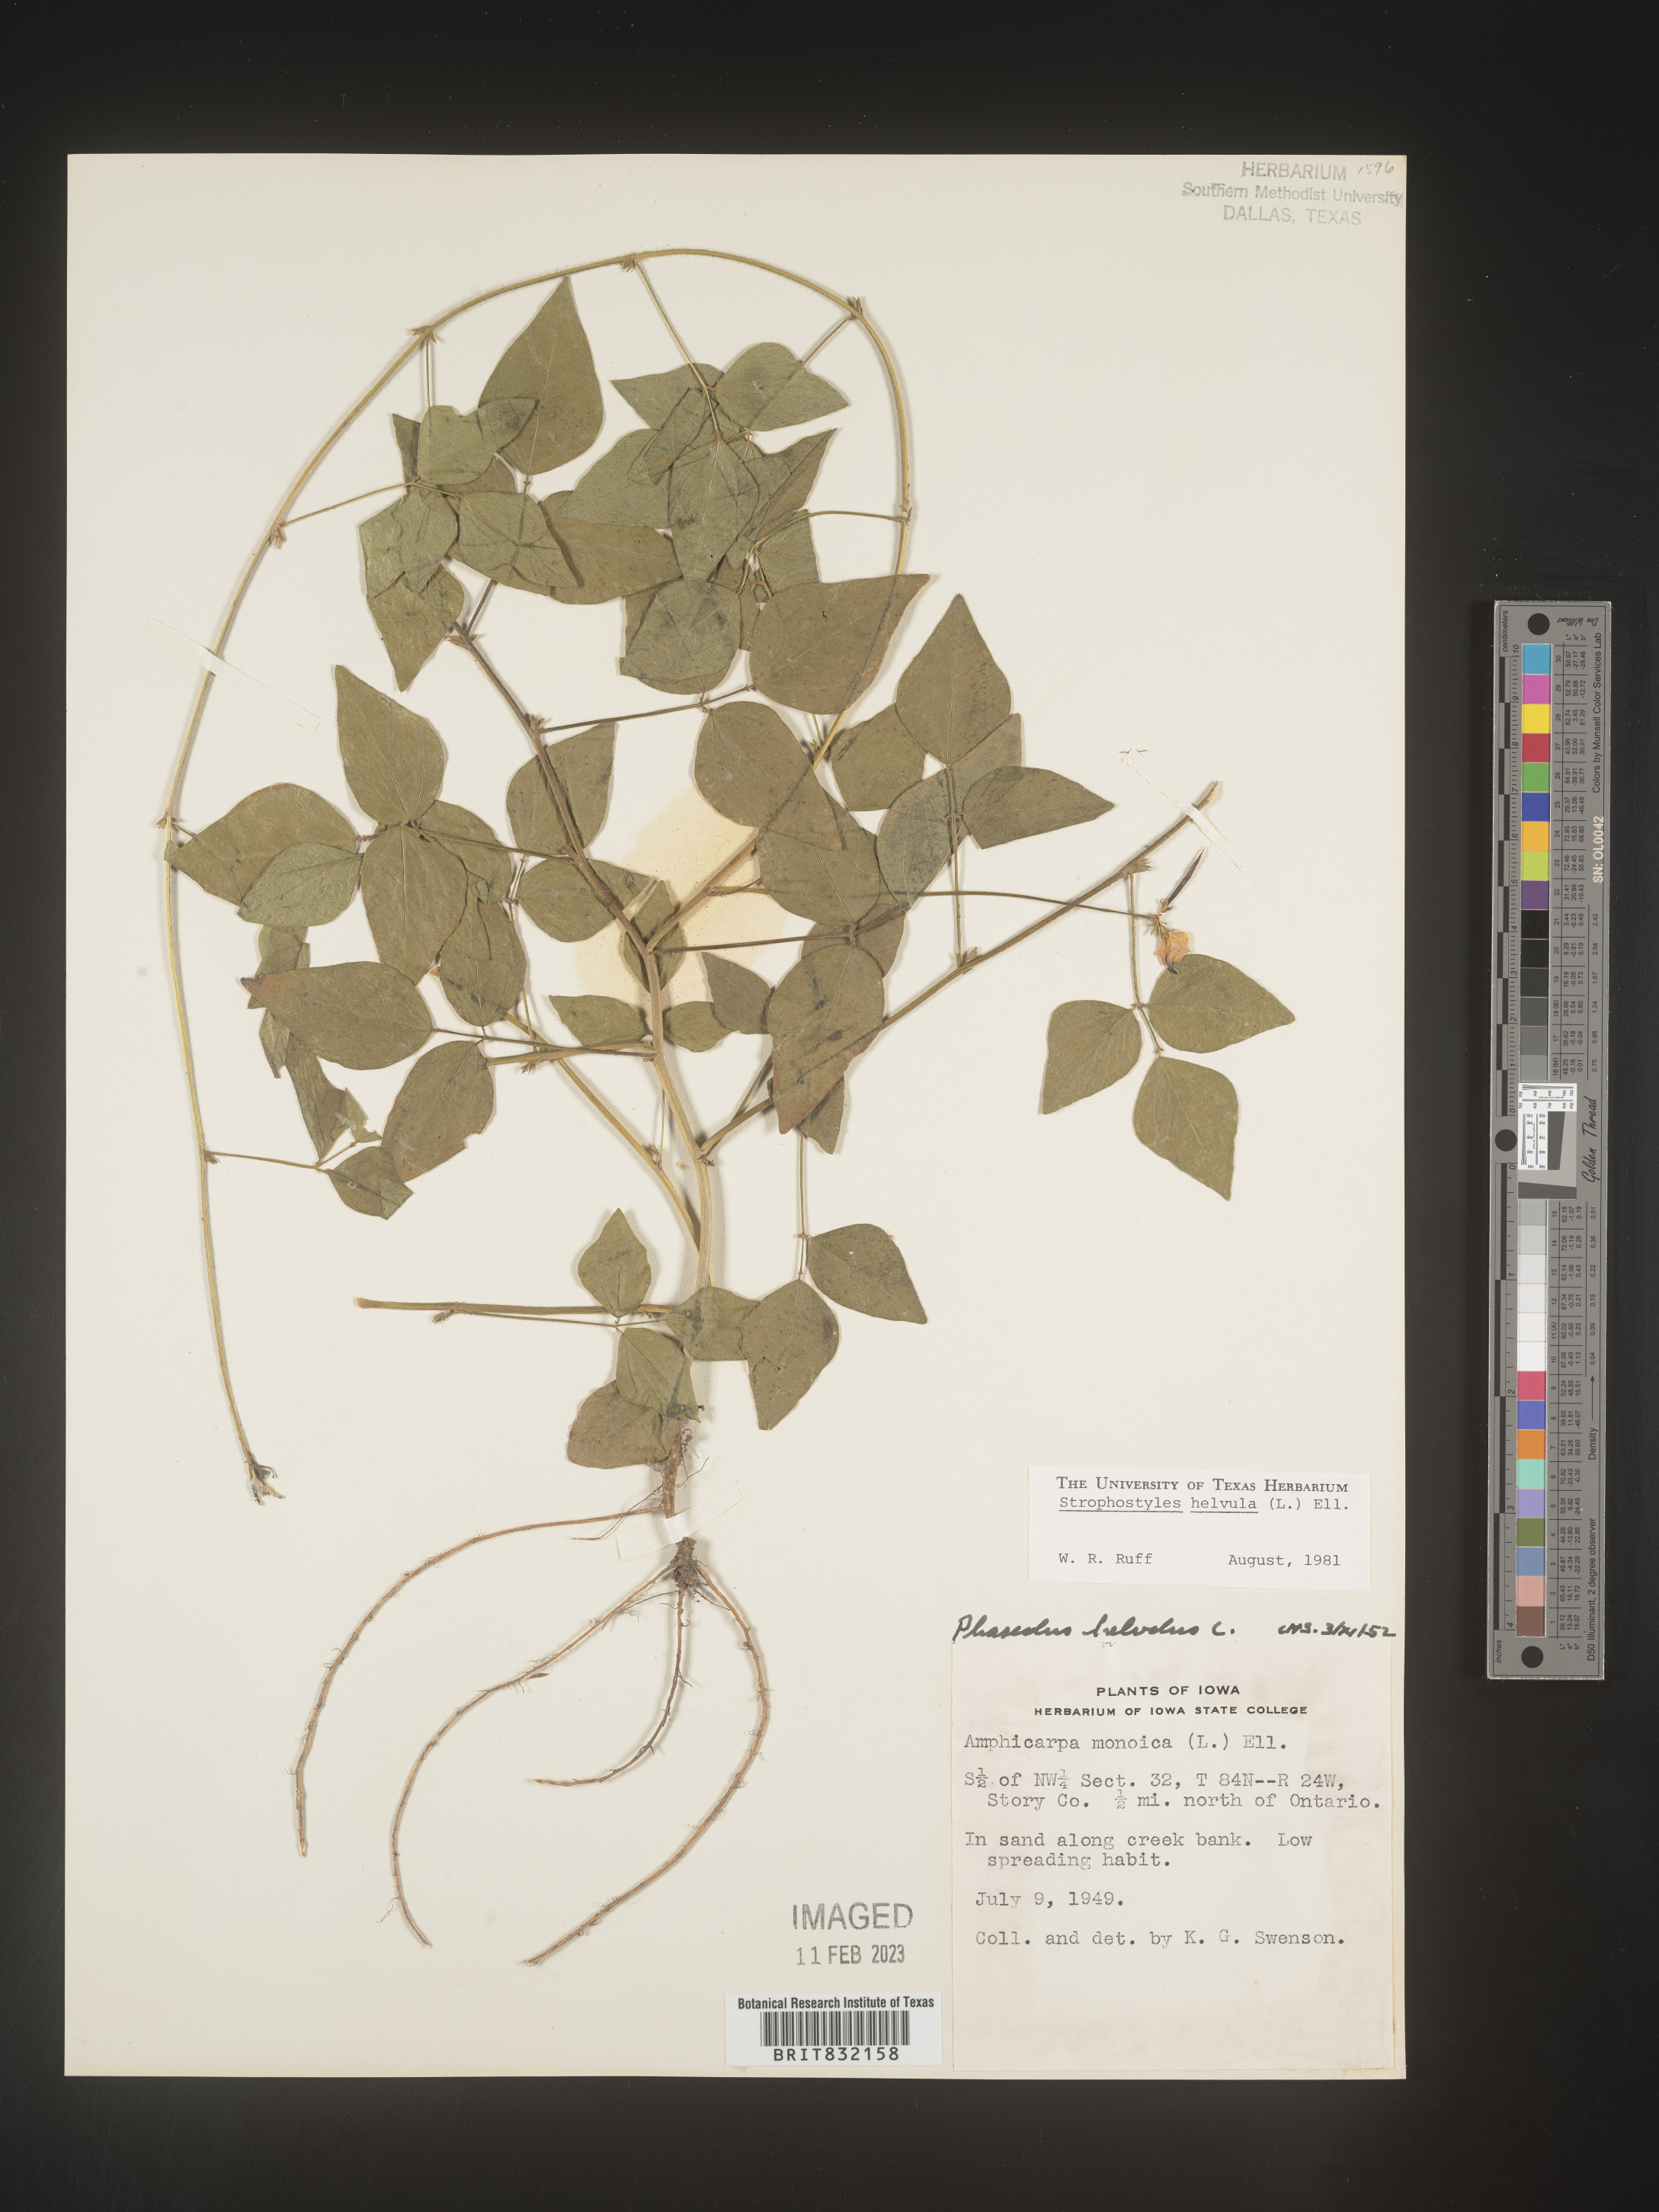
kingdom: Plantae
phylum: Tracheophyta
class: Magnoliopsida
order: Fabales
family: Fabaceae
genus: Strophostyles
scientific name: Strophostyles helvola
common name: Trailing wild bean
